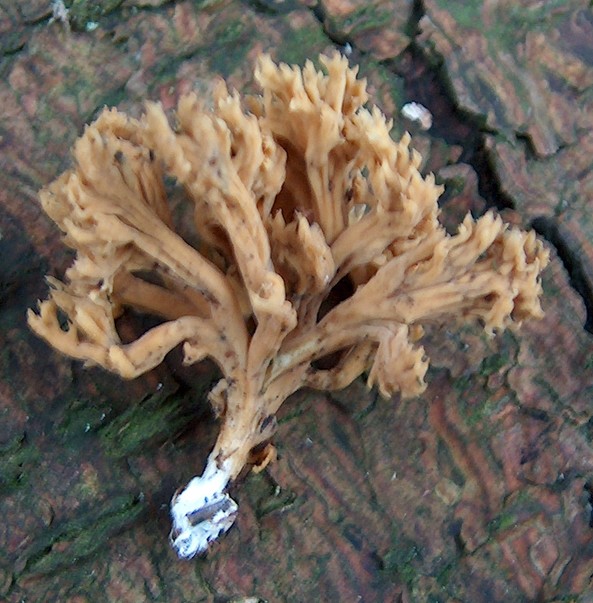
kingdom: Fungi
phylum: Basidiomycota
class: Agaricomycetes
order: Gomphales
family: Gomphaceae
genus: Phaeoclavulina
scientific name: Phaeoclavulina flaccida
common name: spinkel koralsvamp
